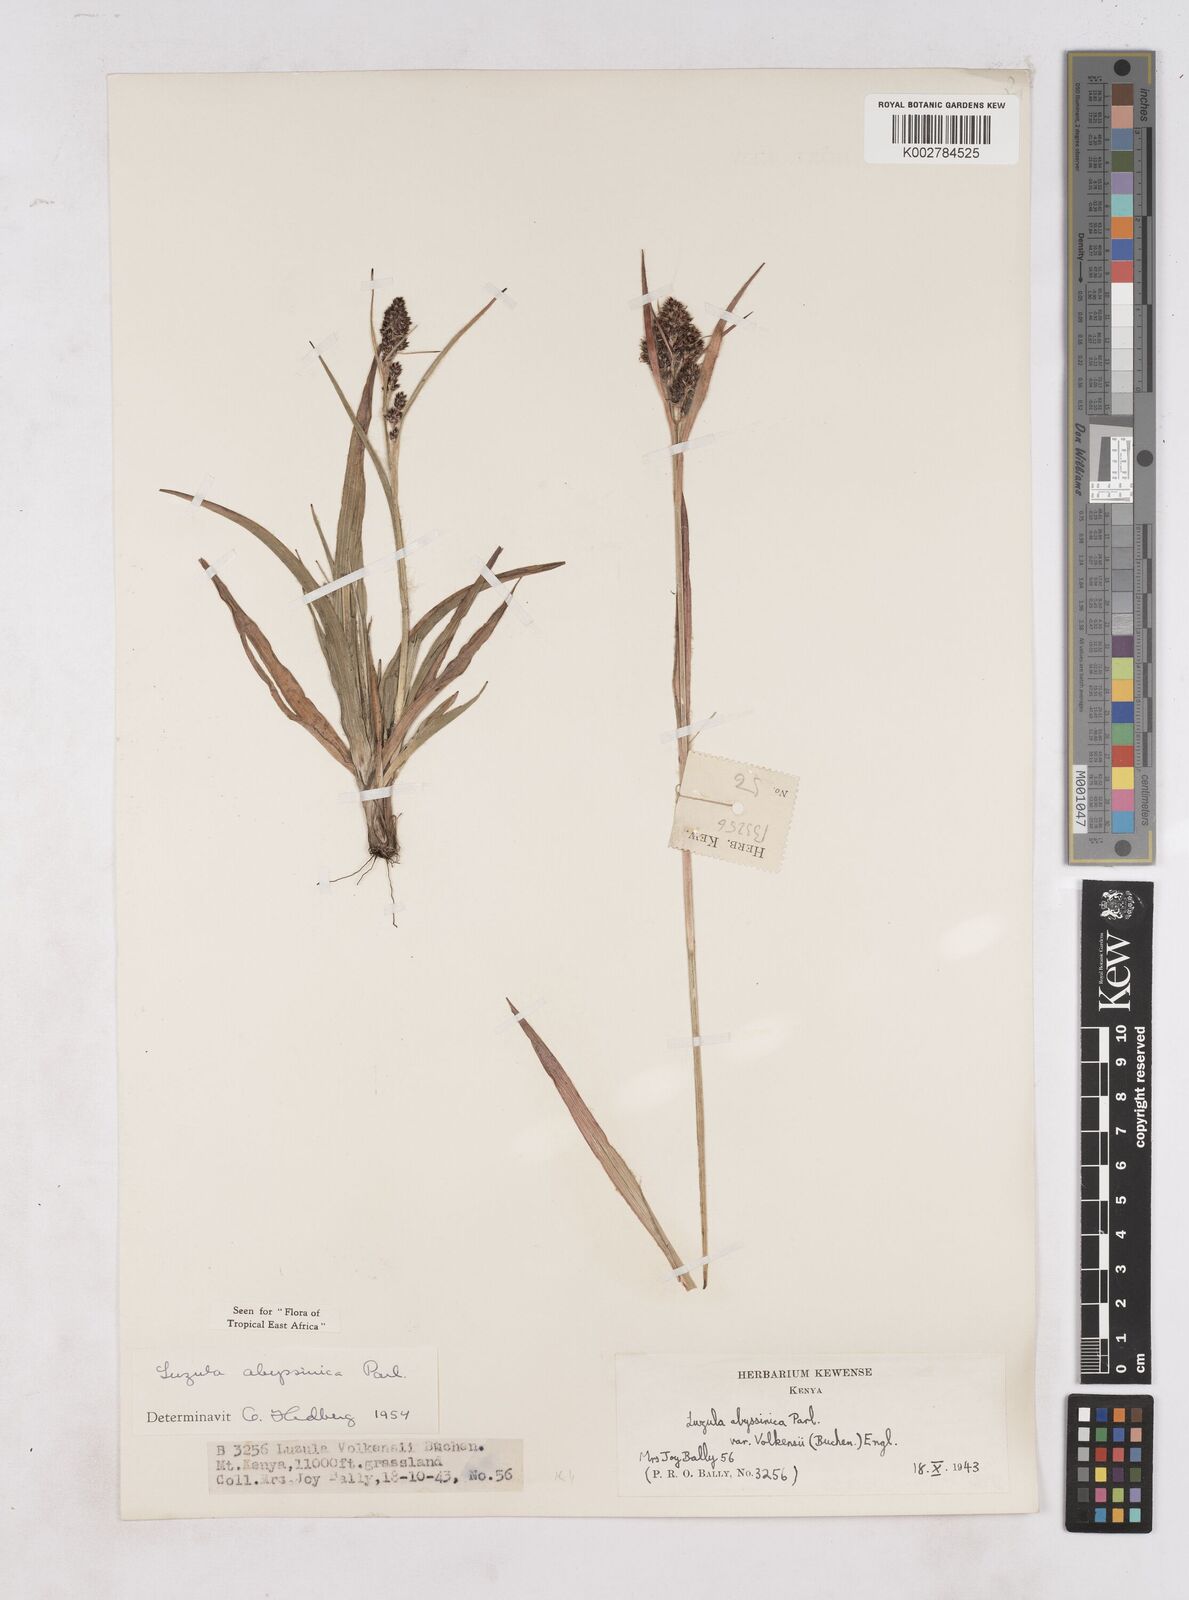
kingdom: Plantae
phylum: Tracheophyta
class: Liliopsida
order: Poales
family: Juncaceae
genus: Luzula
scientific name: Luzula abyssinica
